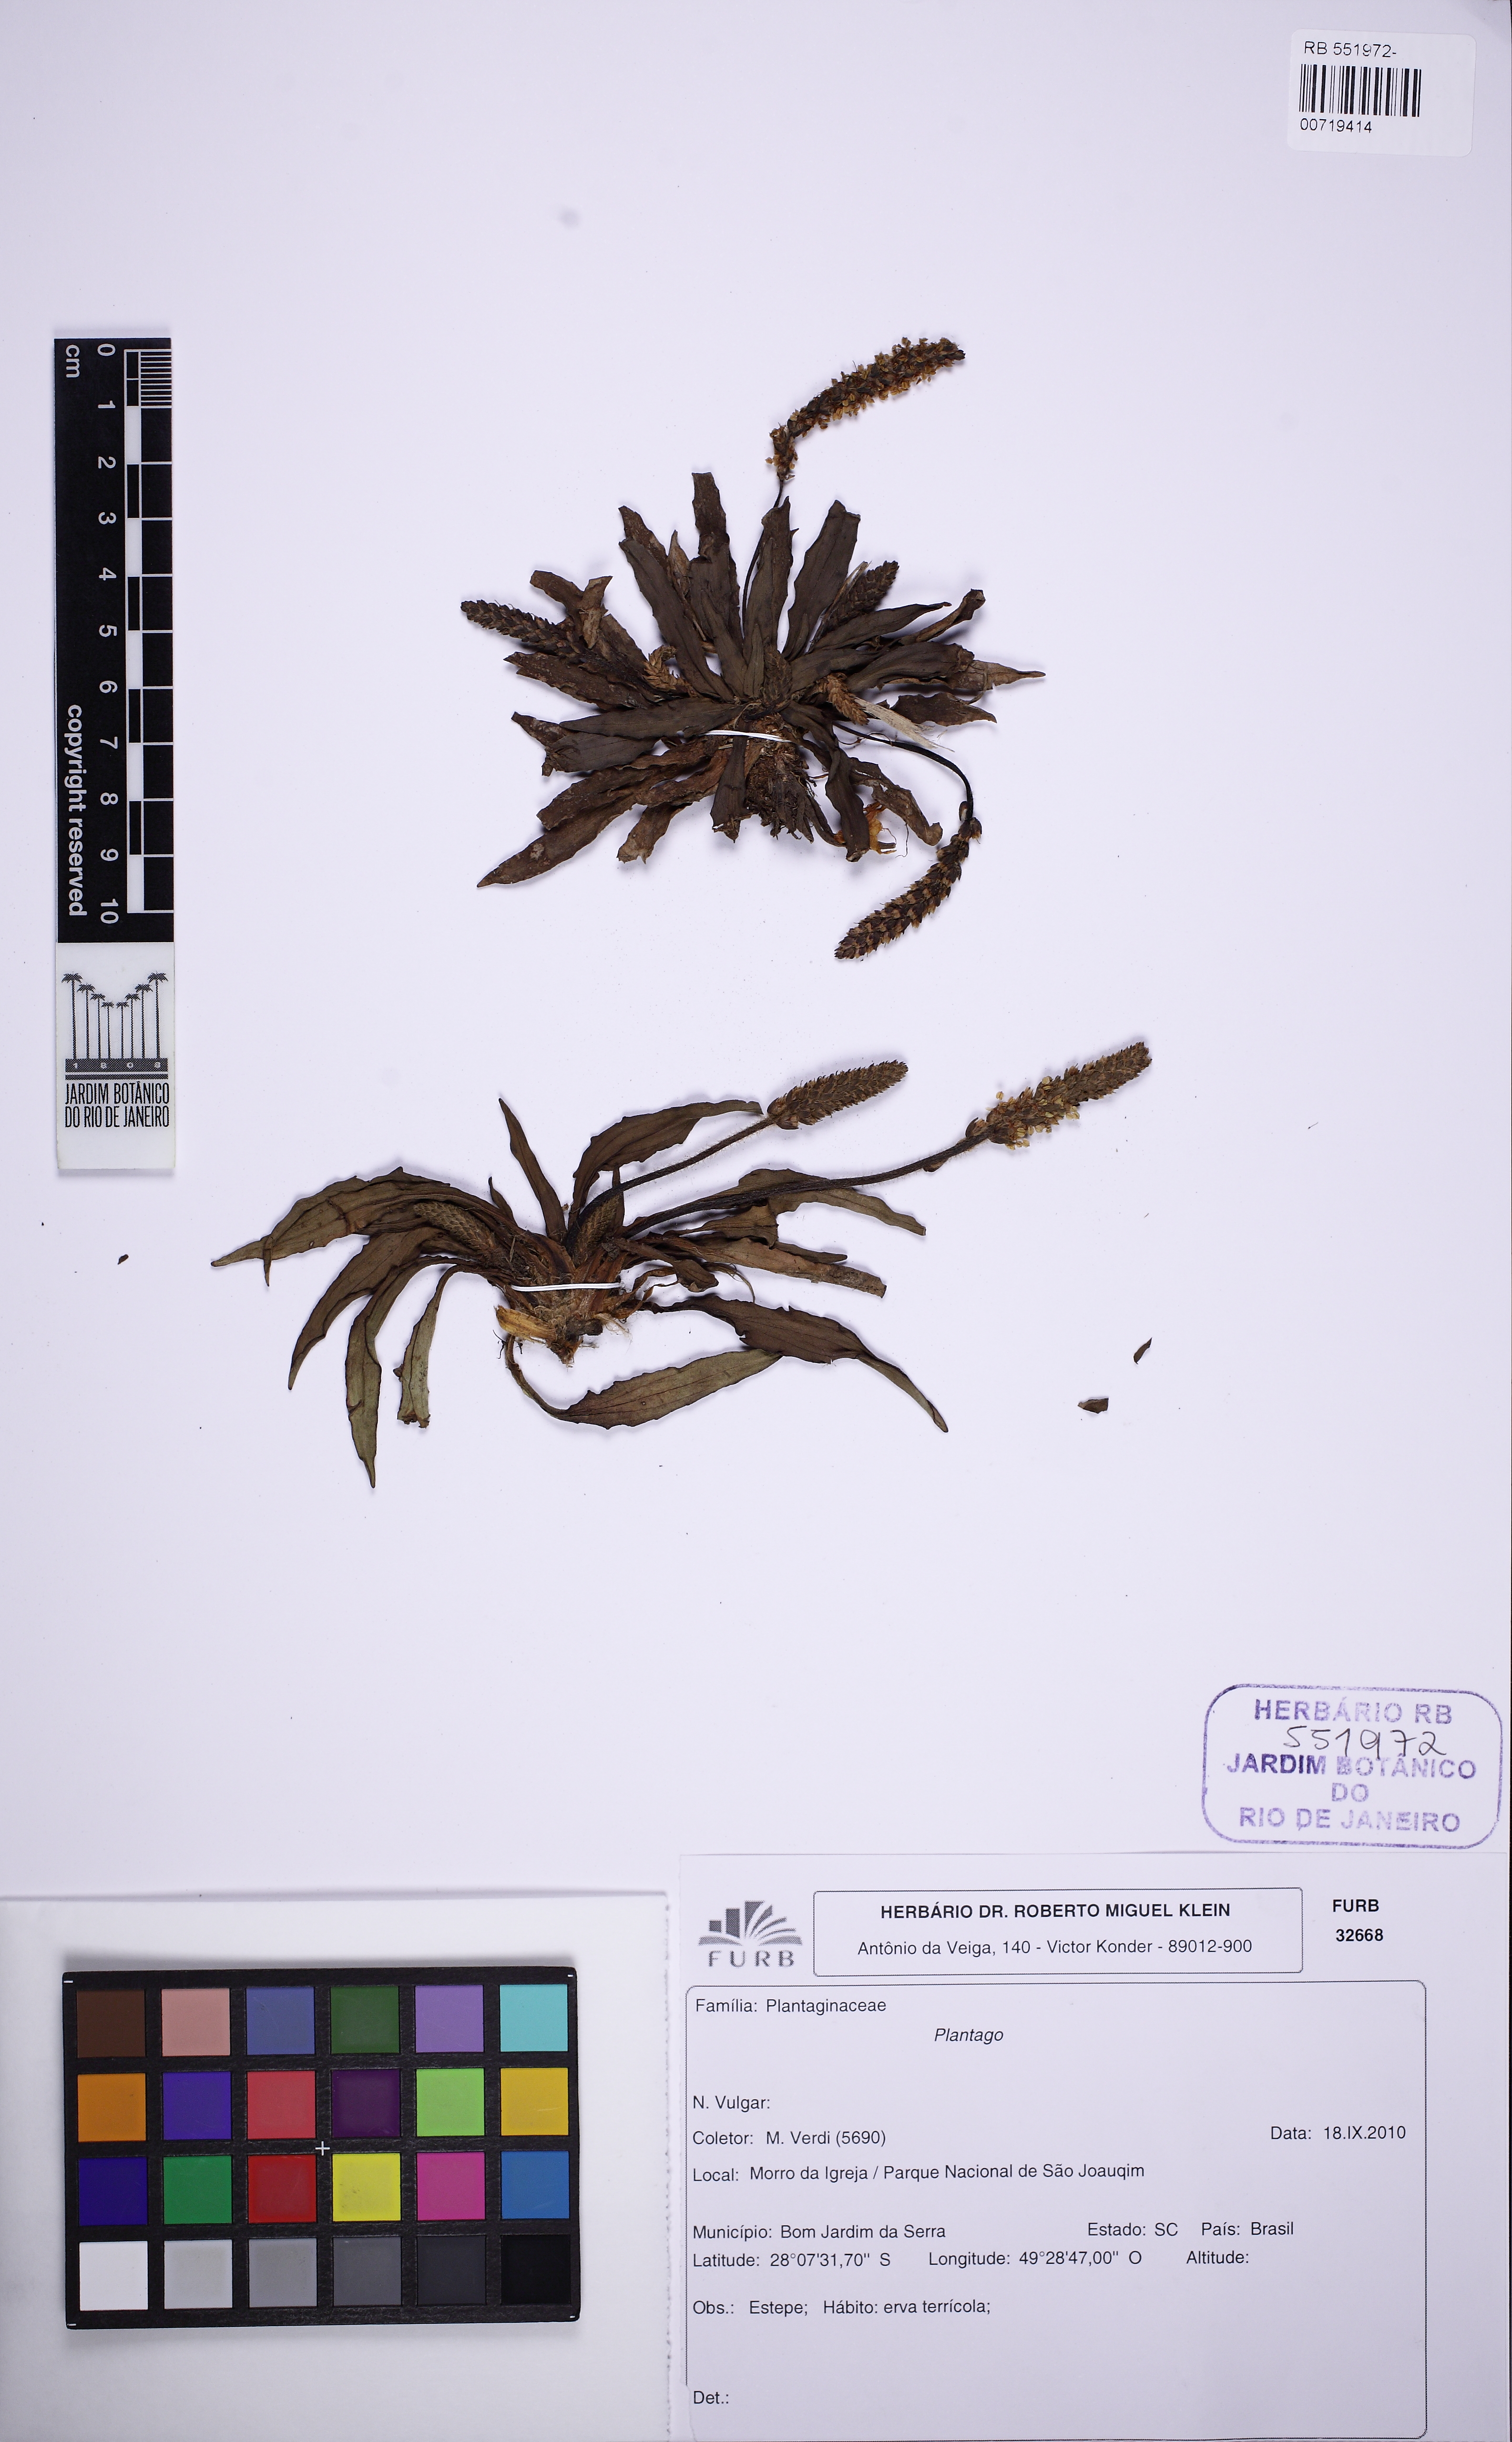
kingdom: Plantae
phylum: Tracheophyta
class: Magnoliopsida
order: Lamiales
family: Plantaginaceae
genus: Plantago
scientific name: Plantago
